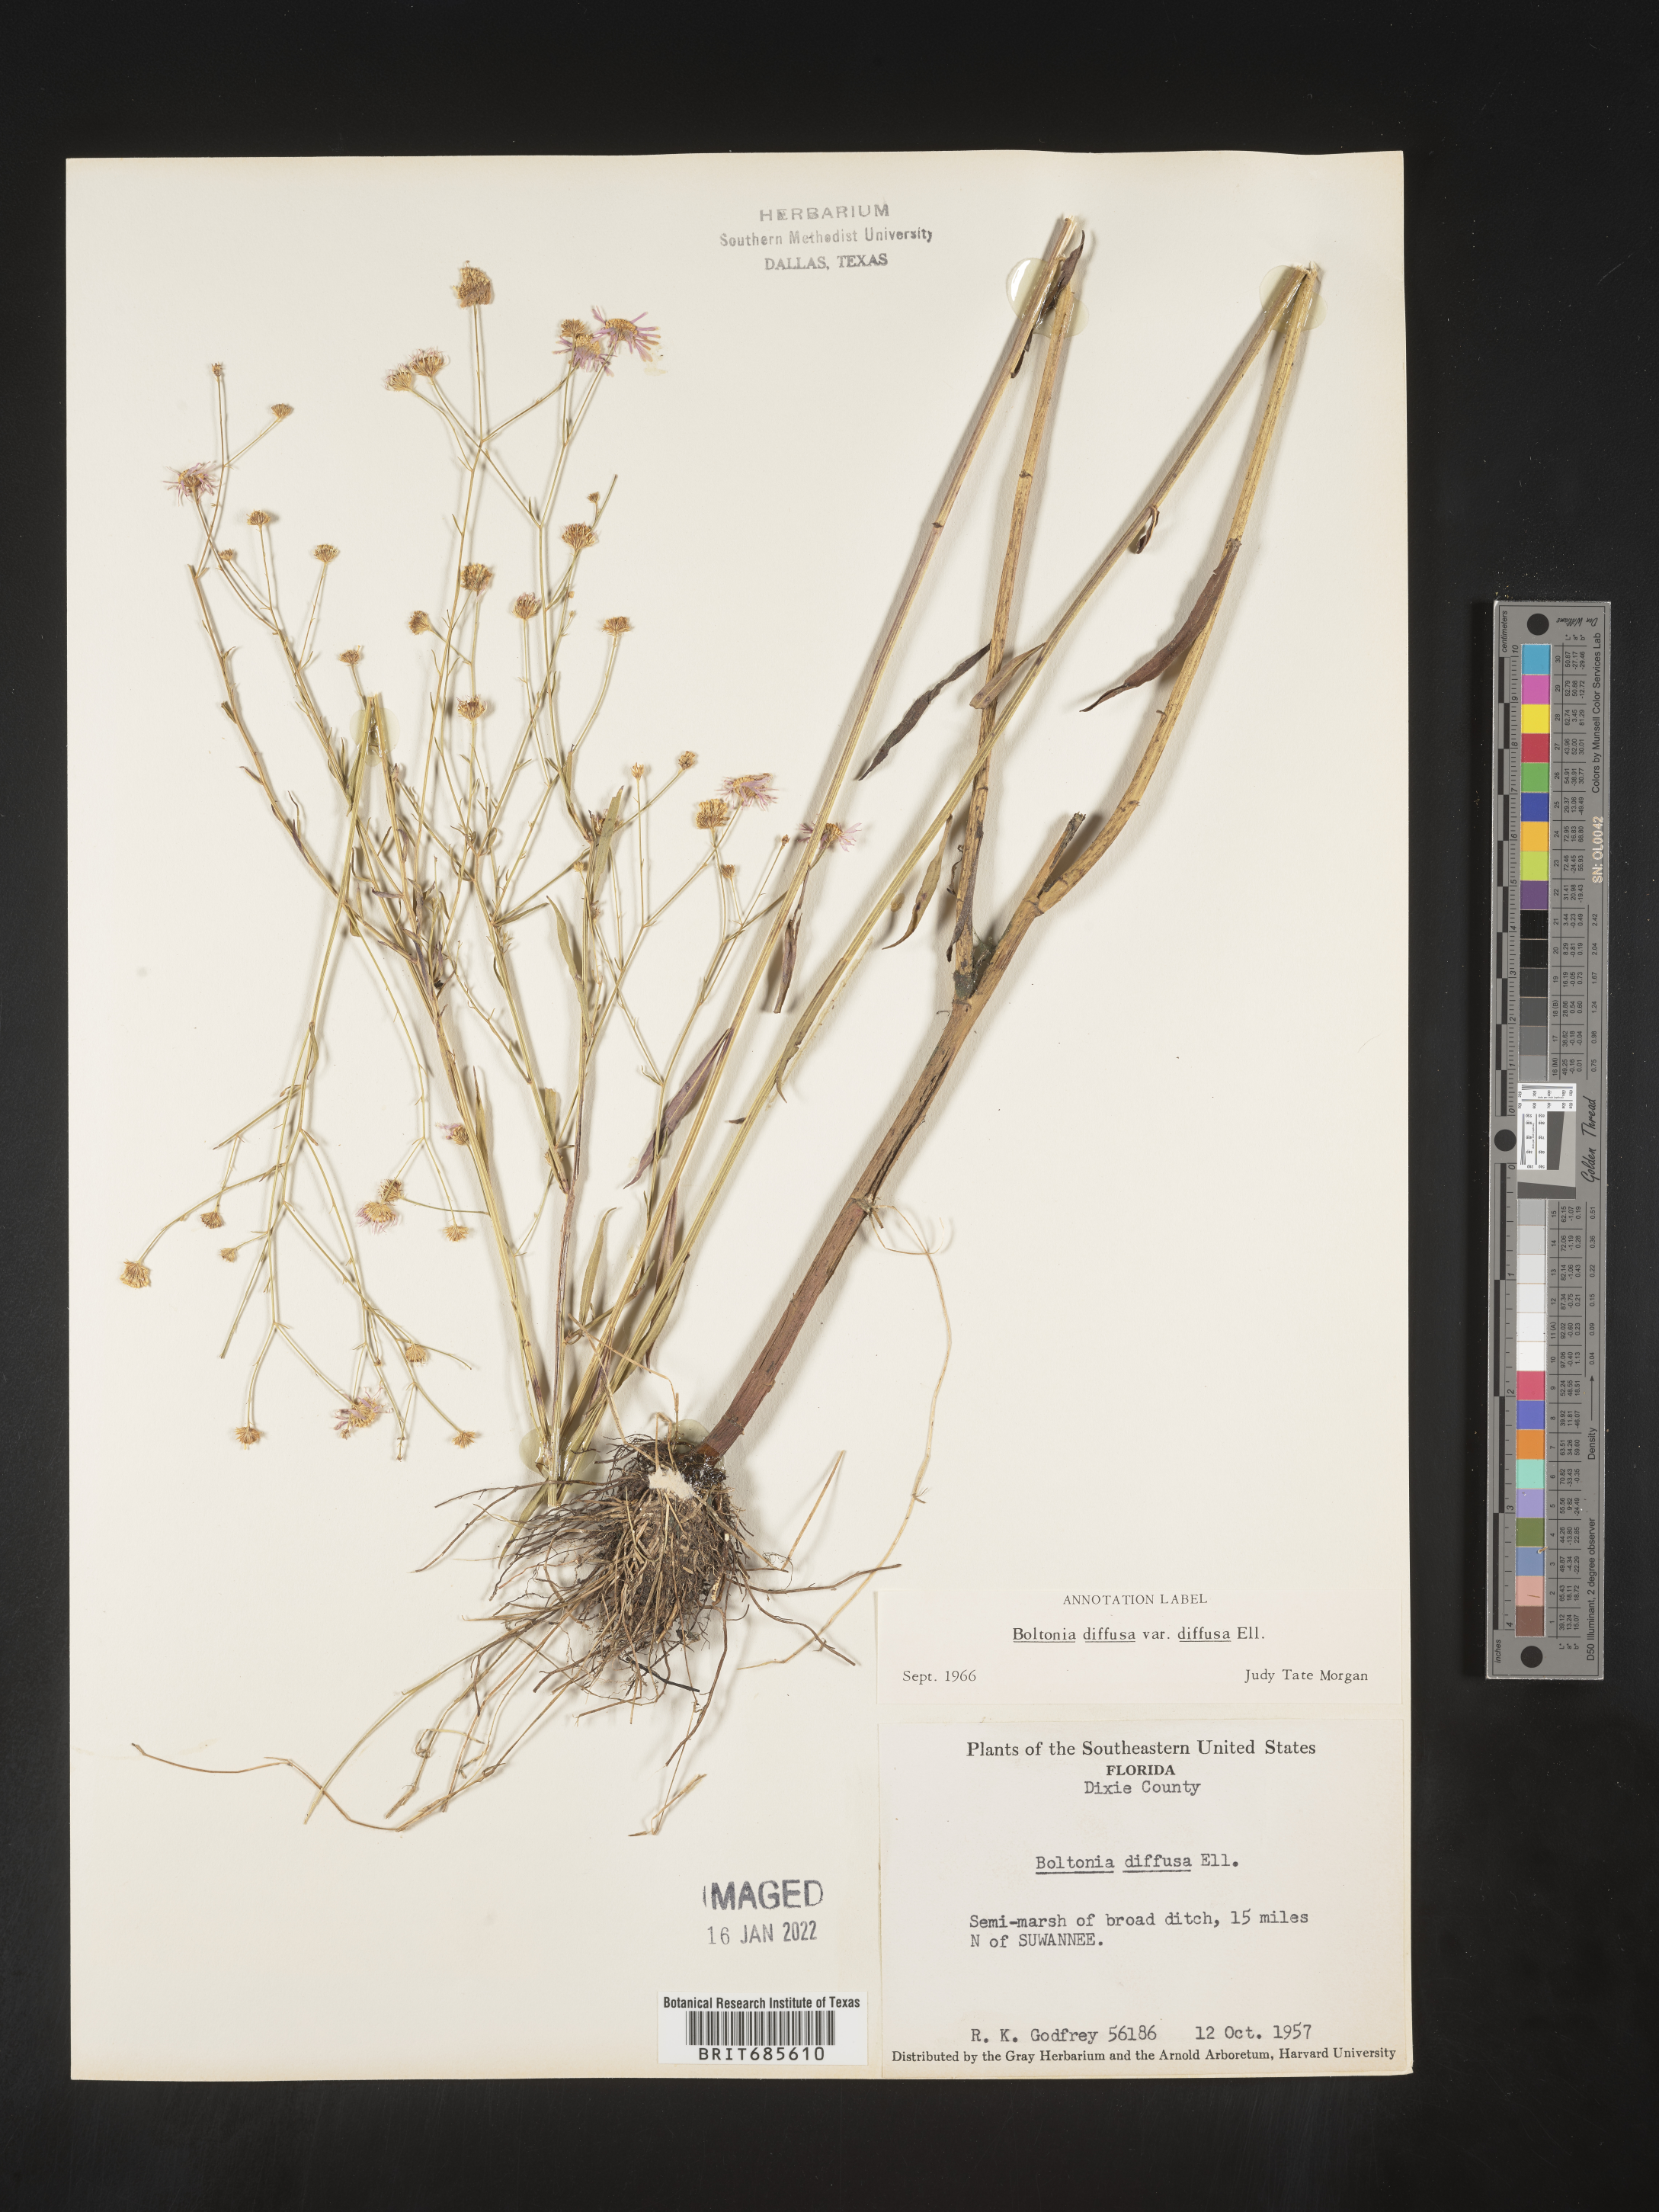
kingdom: Plantae
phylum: Tracheophyta
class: Magnoliopsida
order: Asterales
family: Asteraceae
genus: Boltonia
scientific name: Boltonia diffusa
